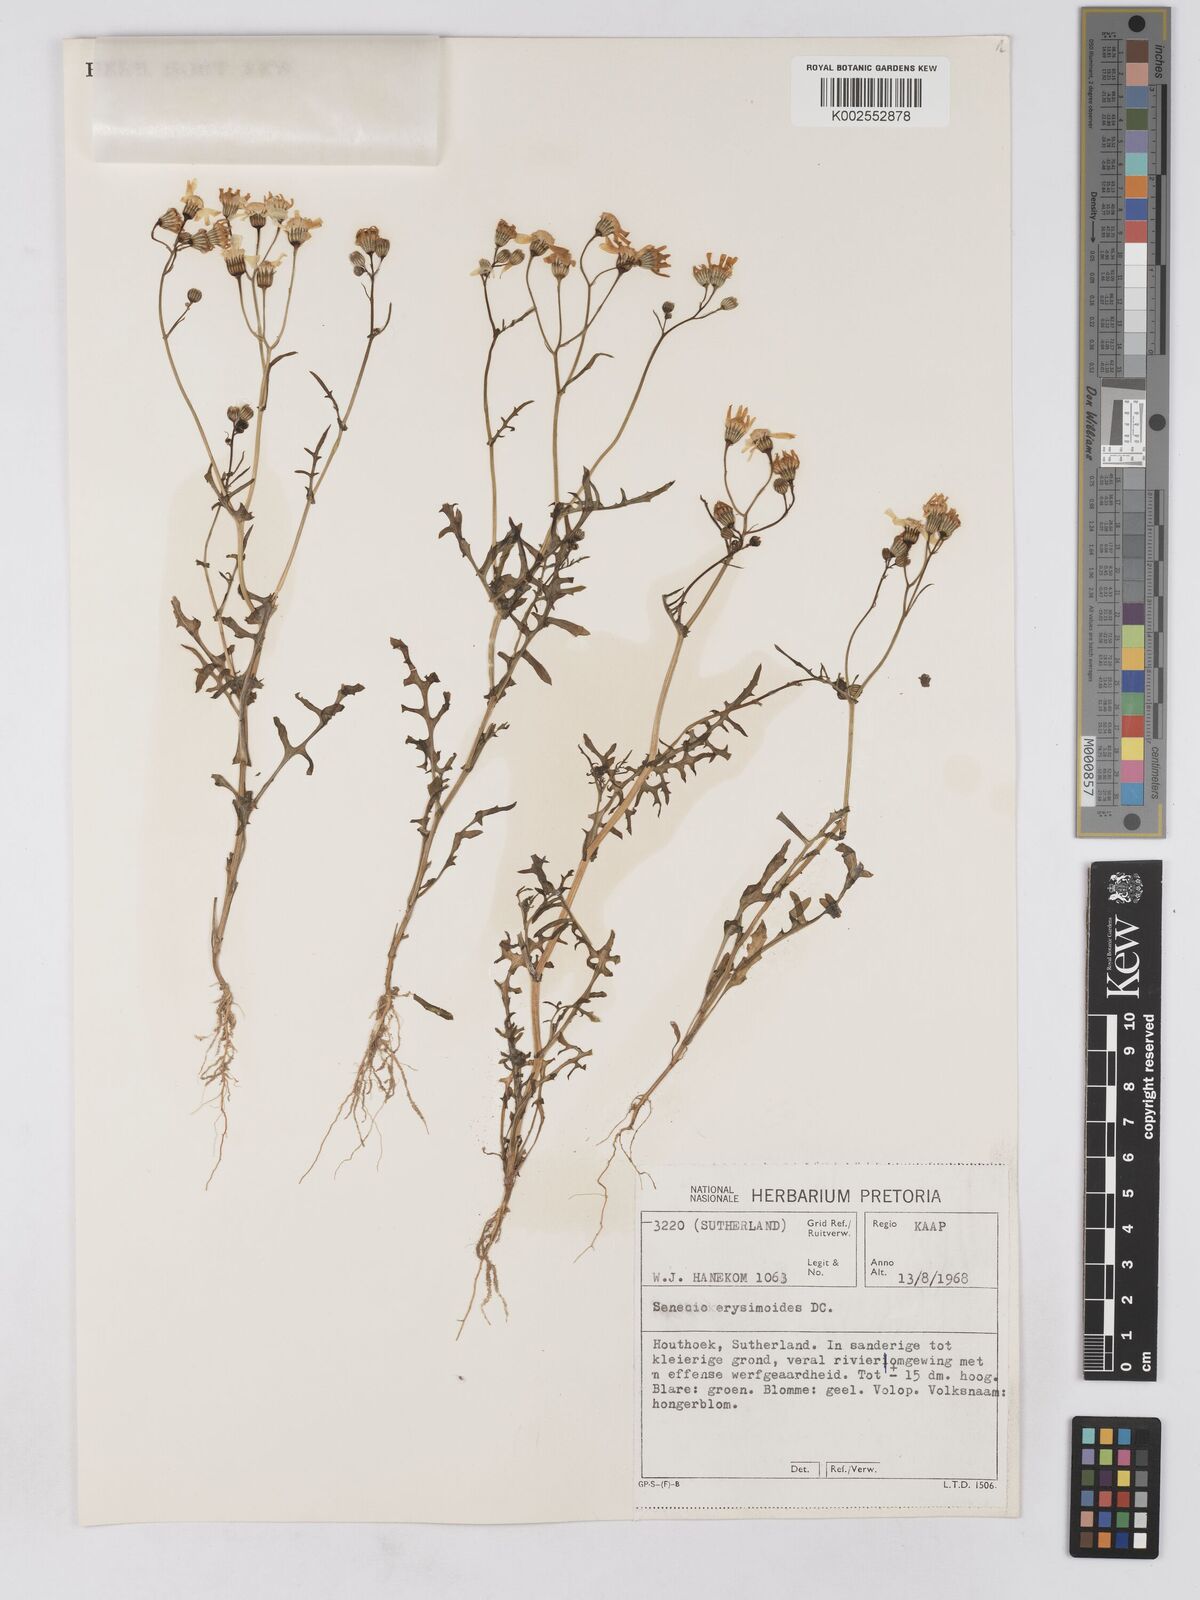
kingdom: Plantae
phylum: Tracheophyta
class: Magnoliopsida
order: Asterales
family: Asteraceae
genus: Senecio
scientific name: Senecio erysimoides
